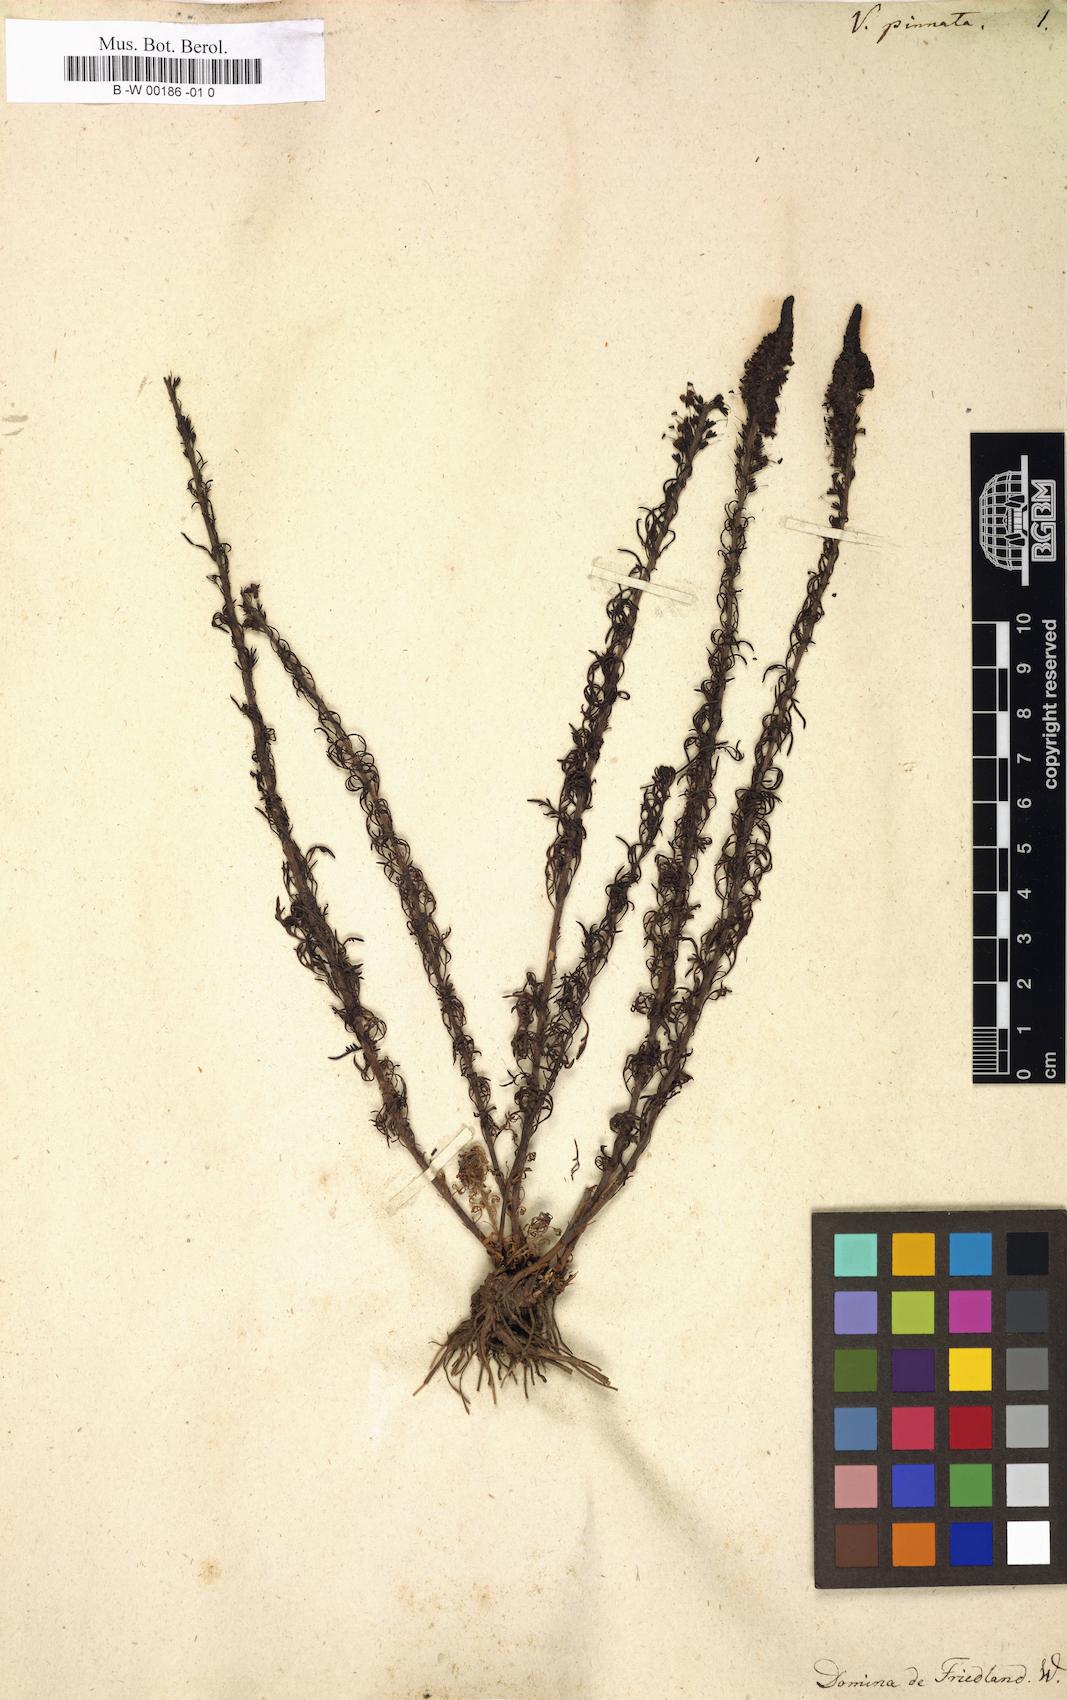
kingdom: Plantae
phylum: Tracheophyta
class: Magnoliopsida
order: Lamiales
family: Plantaginaceae
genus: Veronica
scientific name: Veronica pinnata
